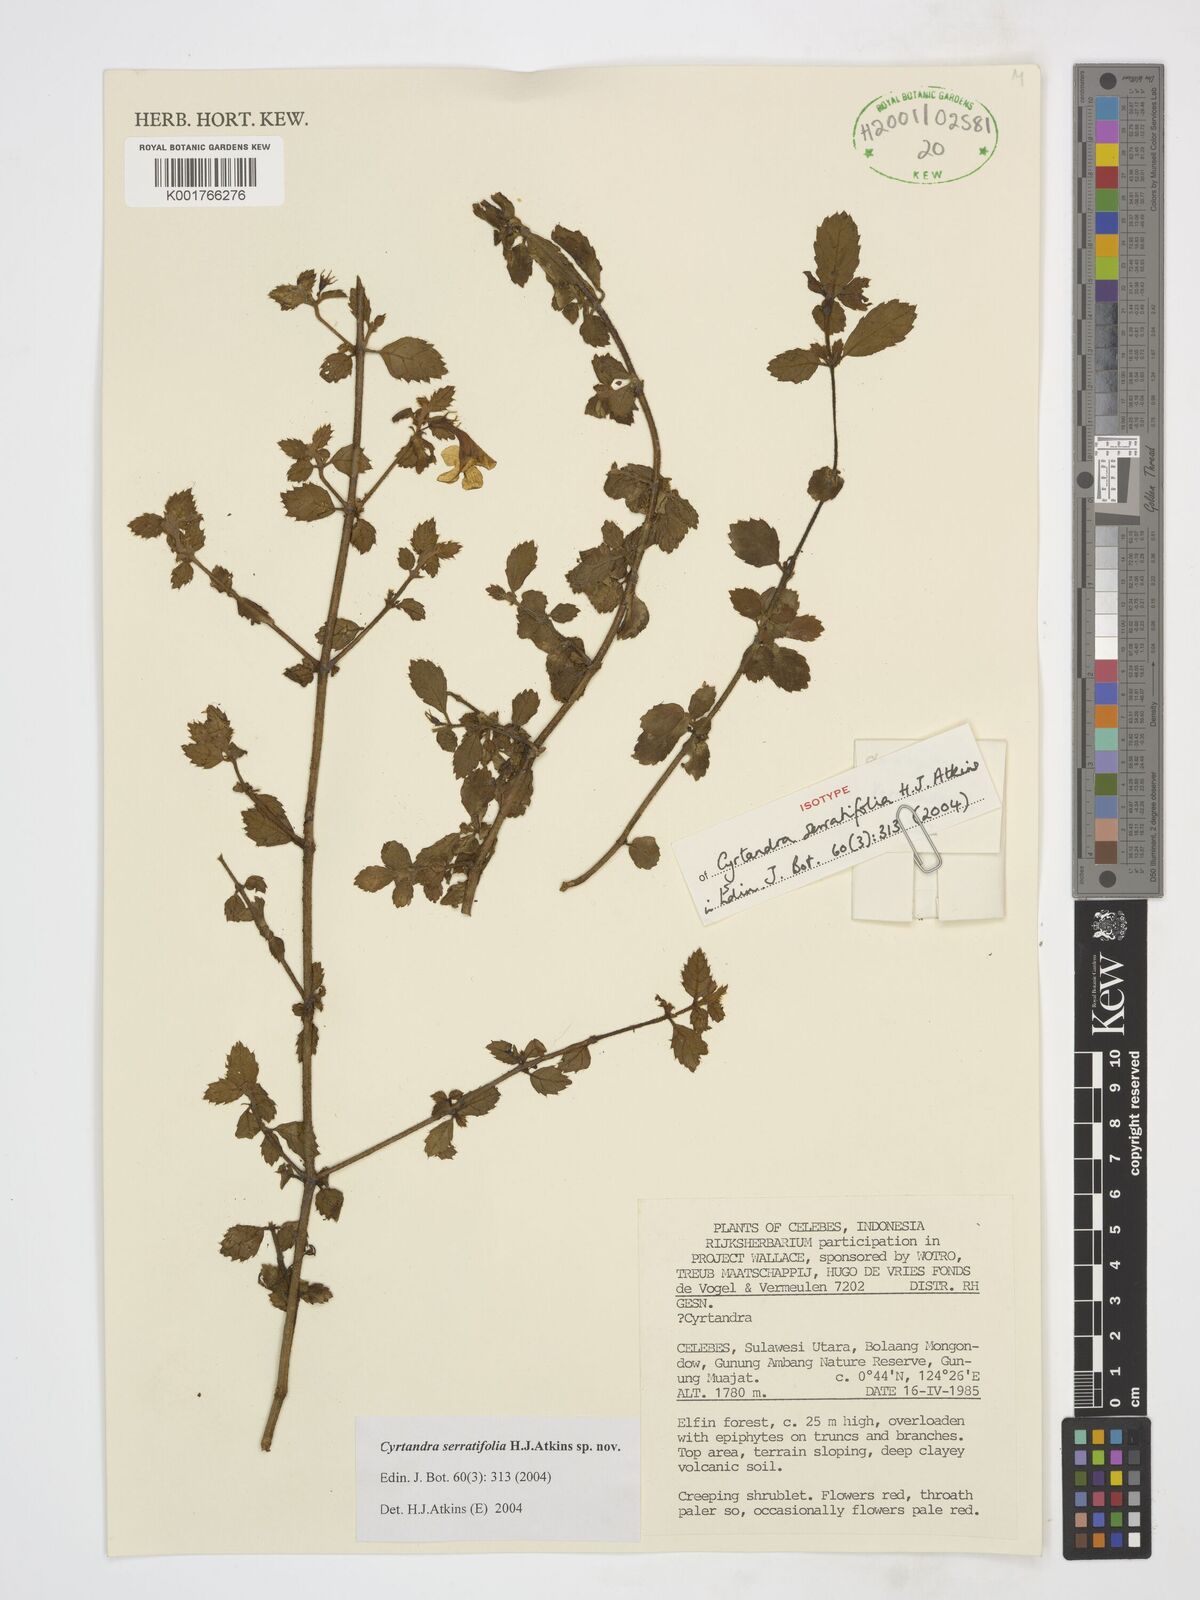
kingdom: Plantae
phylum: Tracheophyta
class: Magnoliopsida
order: Lamiales
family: Gesneriaceae
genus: Cyrtandra
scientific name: Cyrtandra serratifolia
